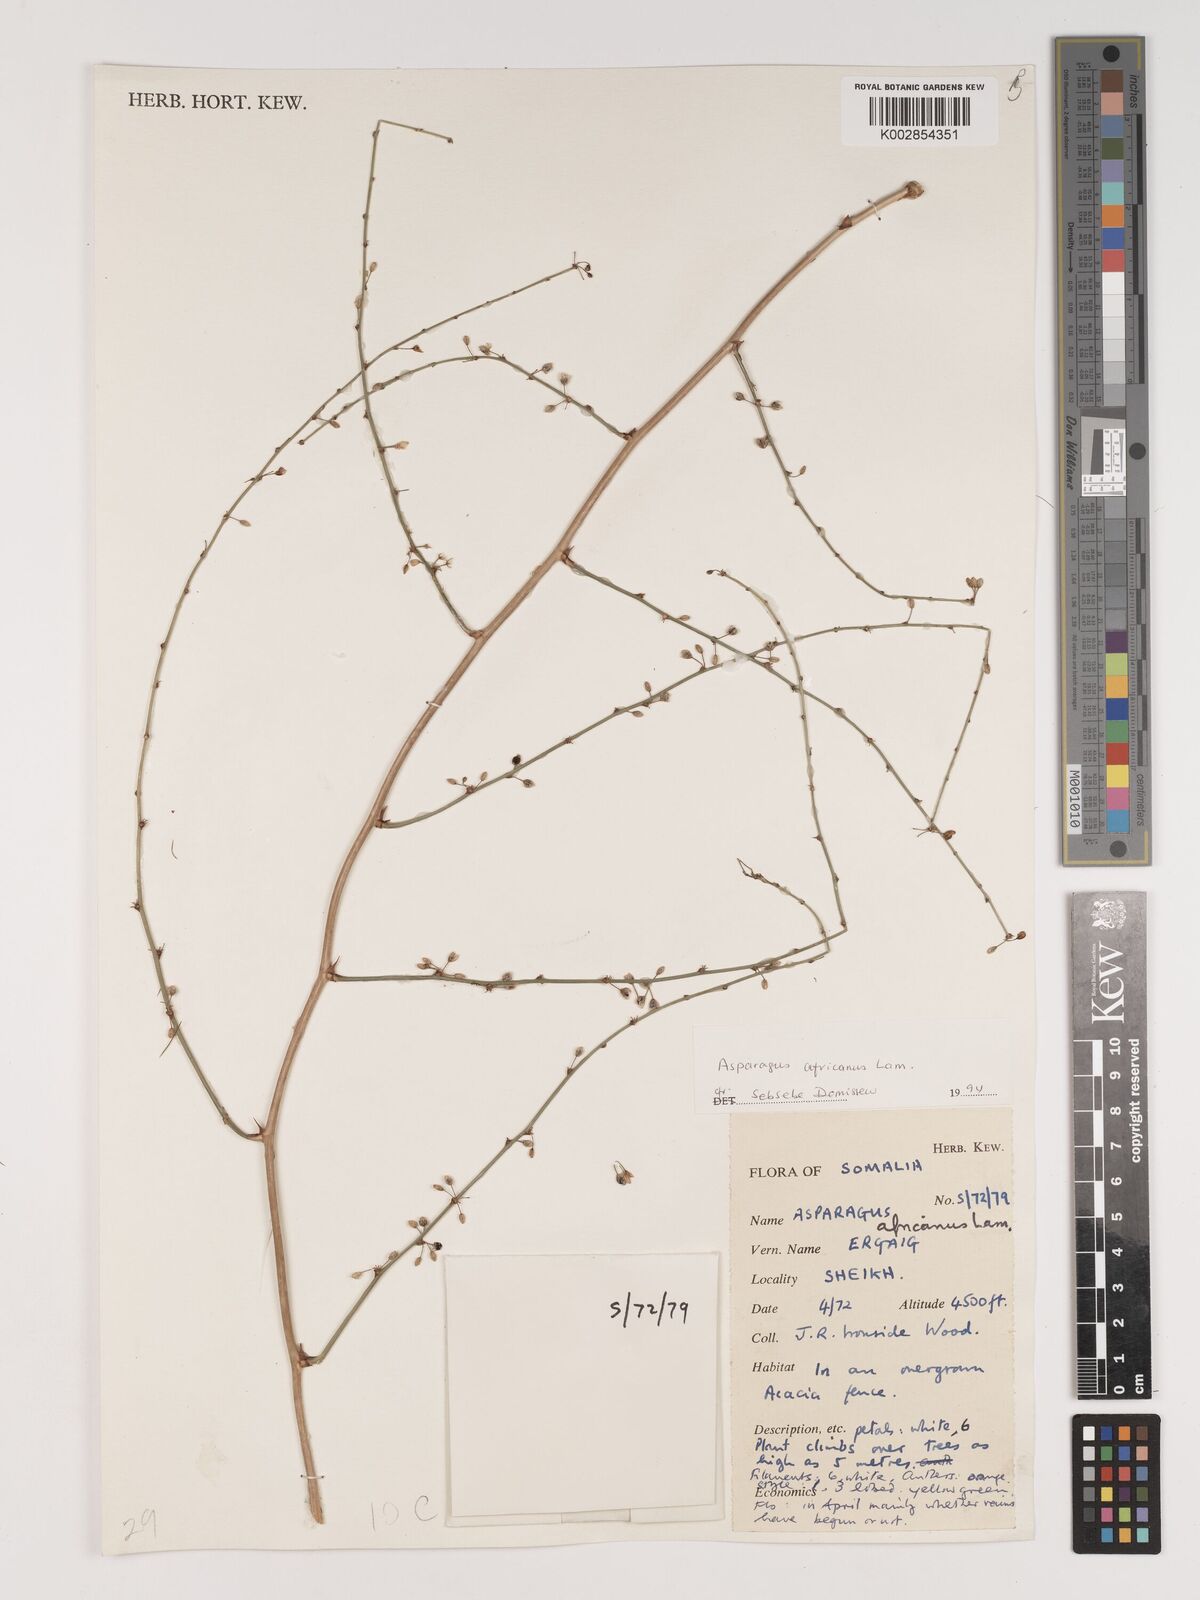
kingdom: Plantae
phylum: Tracheophyta
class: Liliopsida
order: Asparagales
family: Asparagaceae
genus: Asparagus
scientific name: Asparagus africanus
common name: Asparagus-fern
